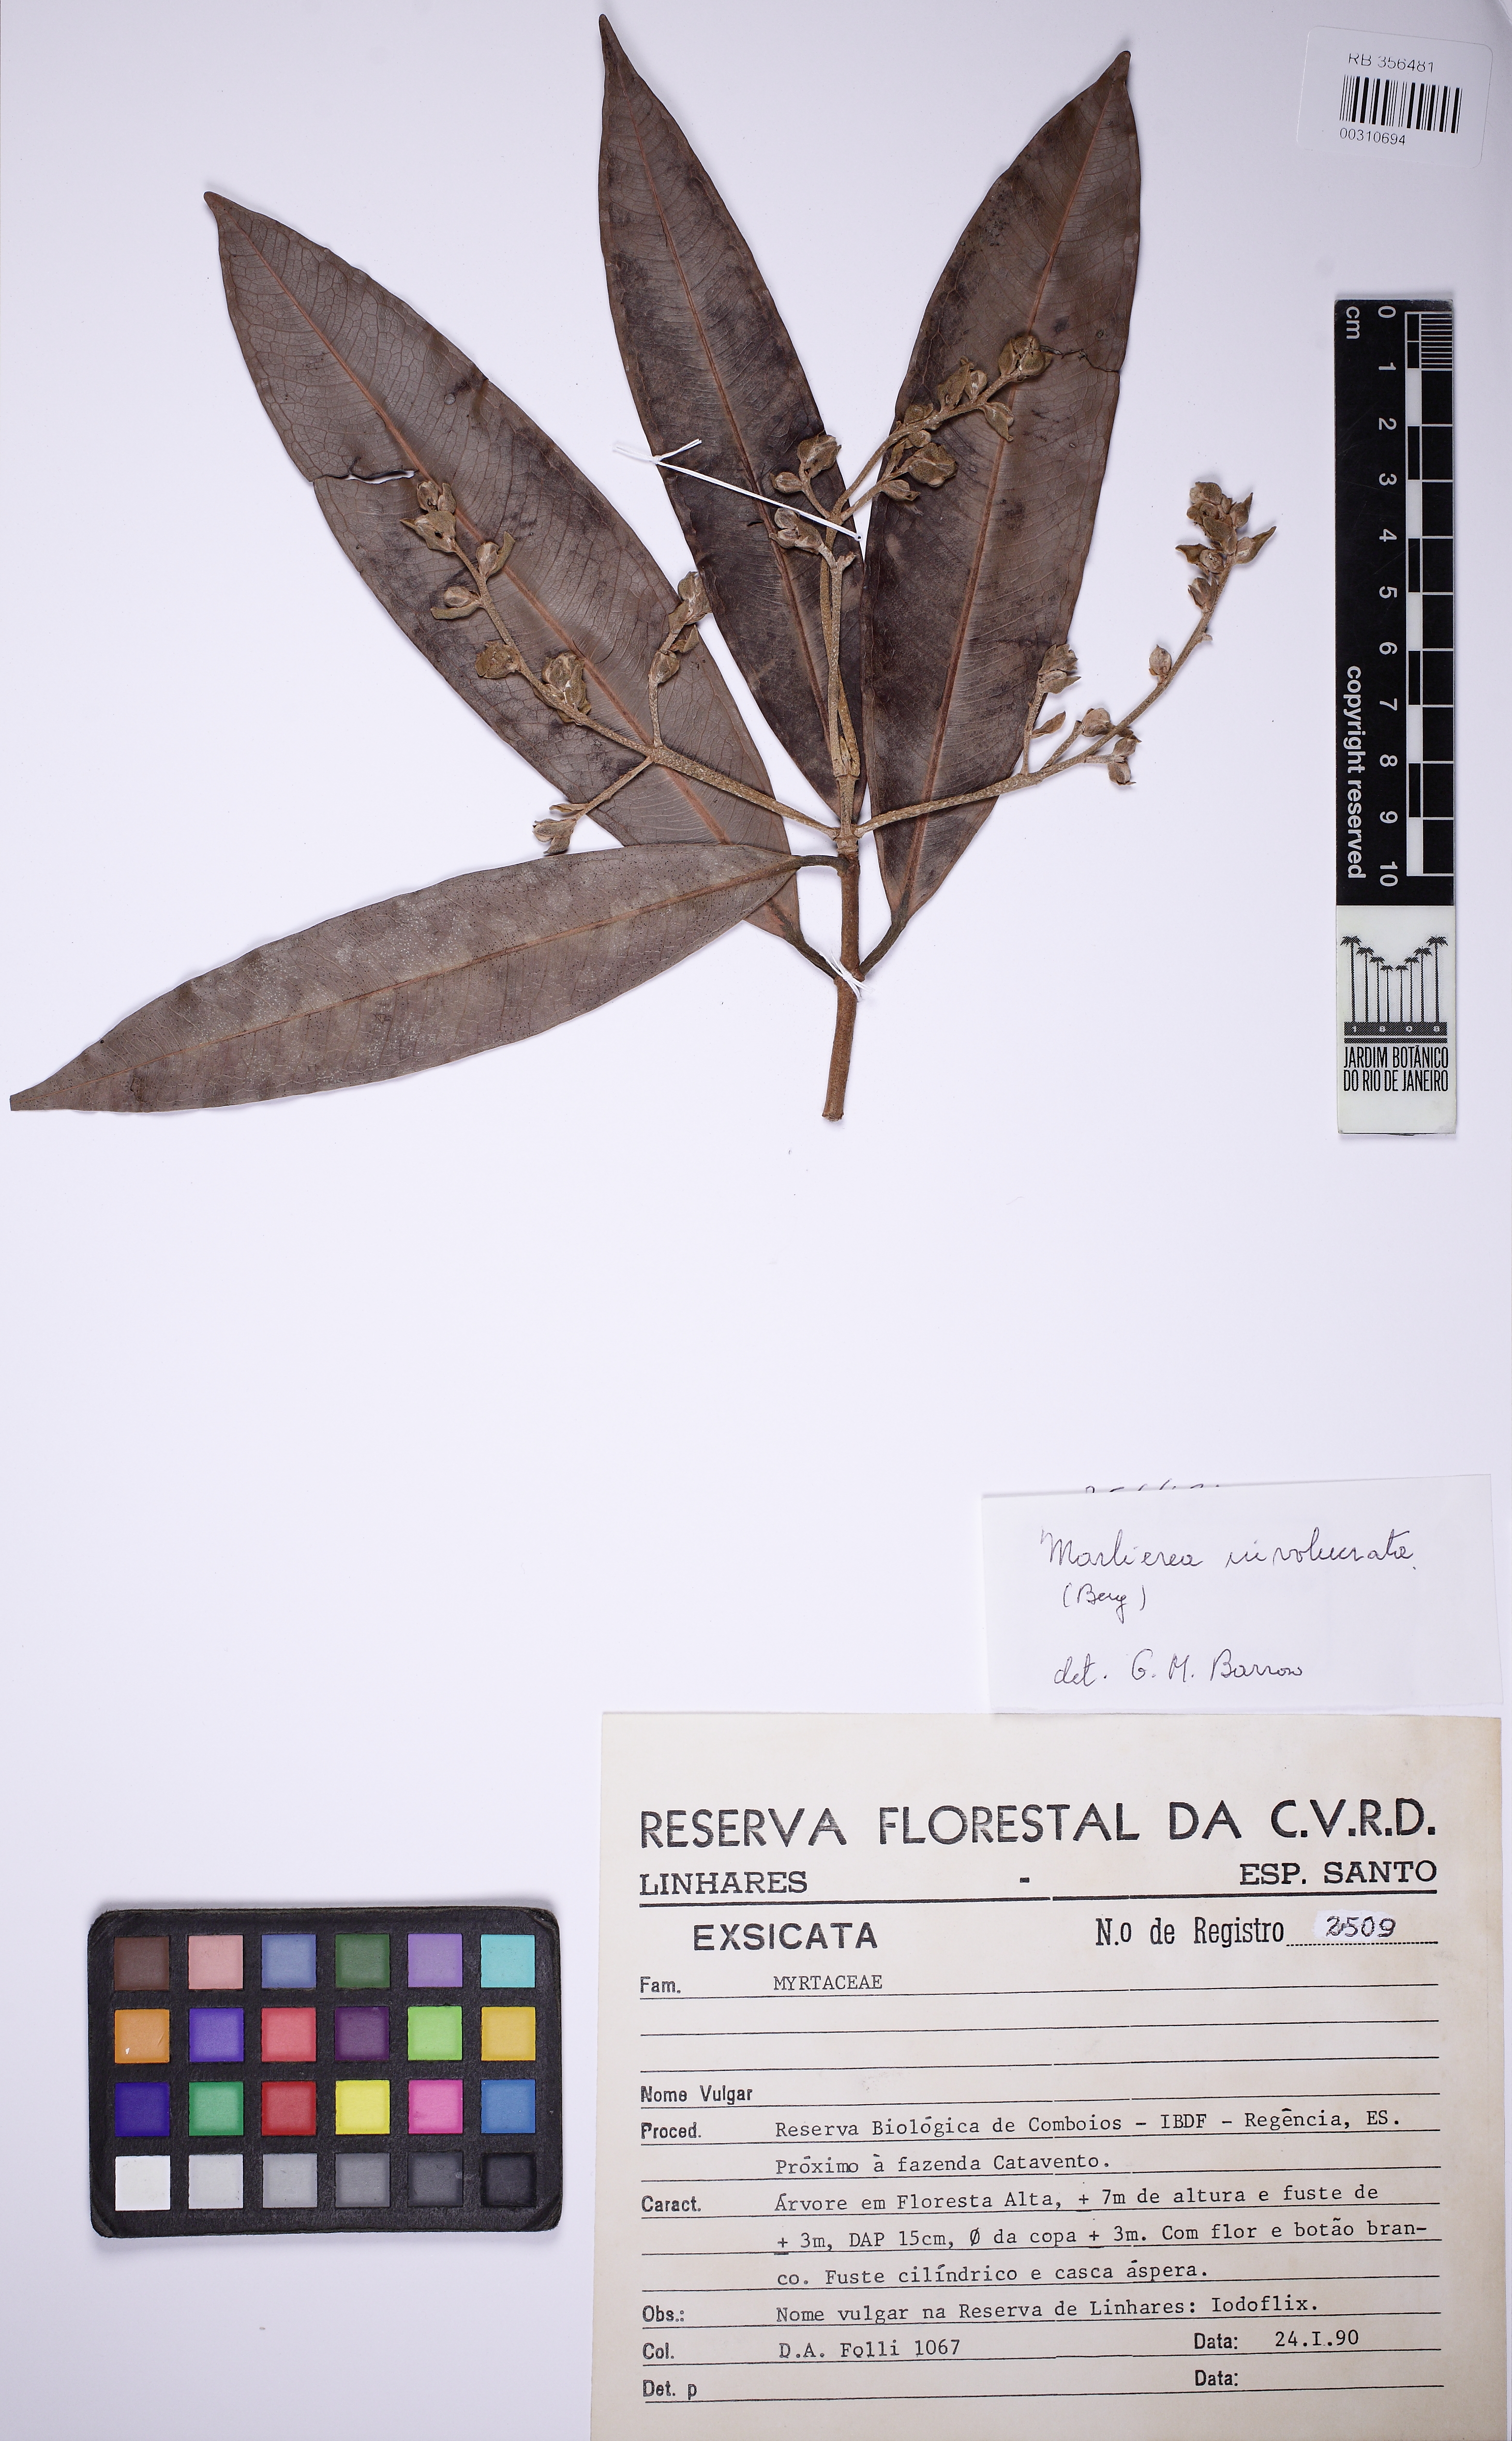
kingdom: Plantae
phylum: Tracheophyta
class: Magnoliopsida
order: Myrtales
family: Myrtaceae
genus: Myrcia
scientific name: Myrcia neodimorpha
